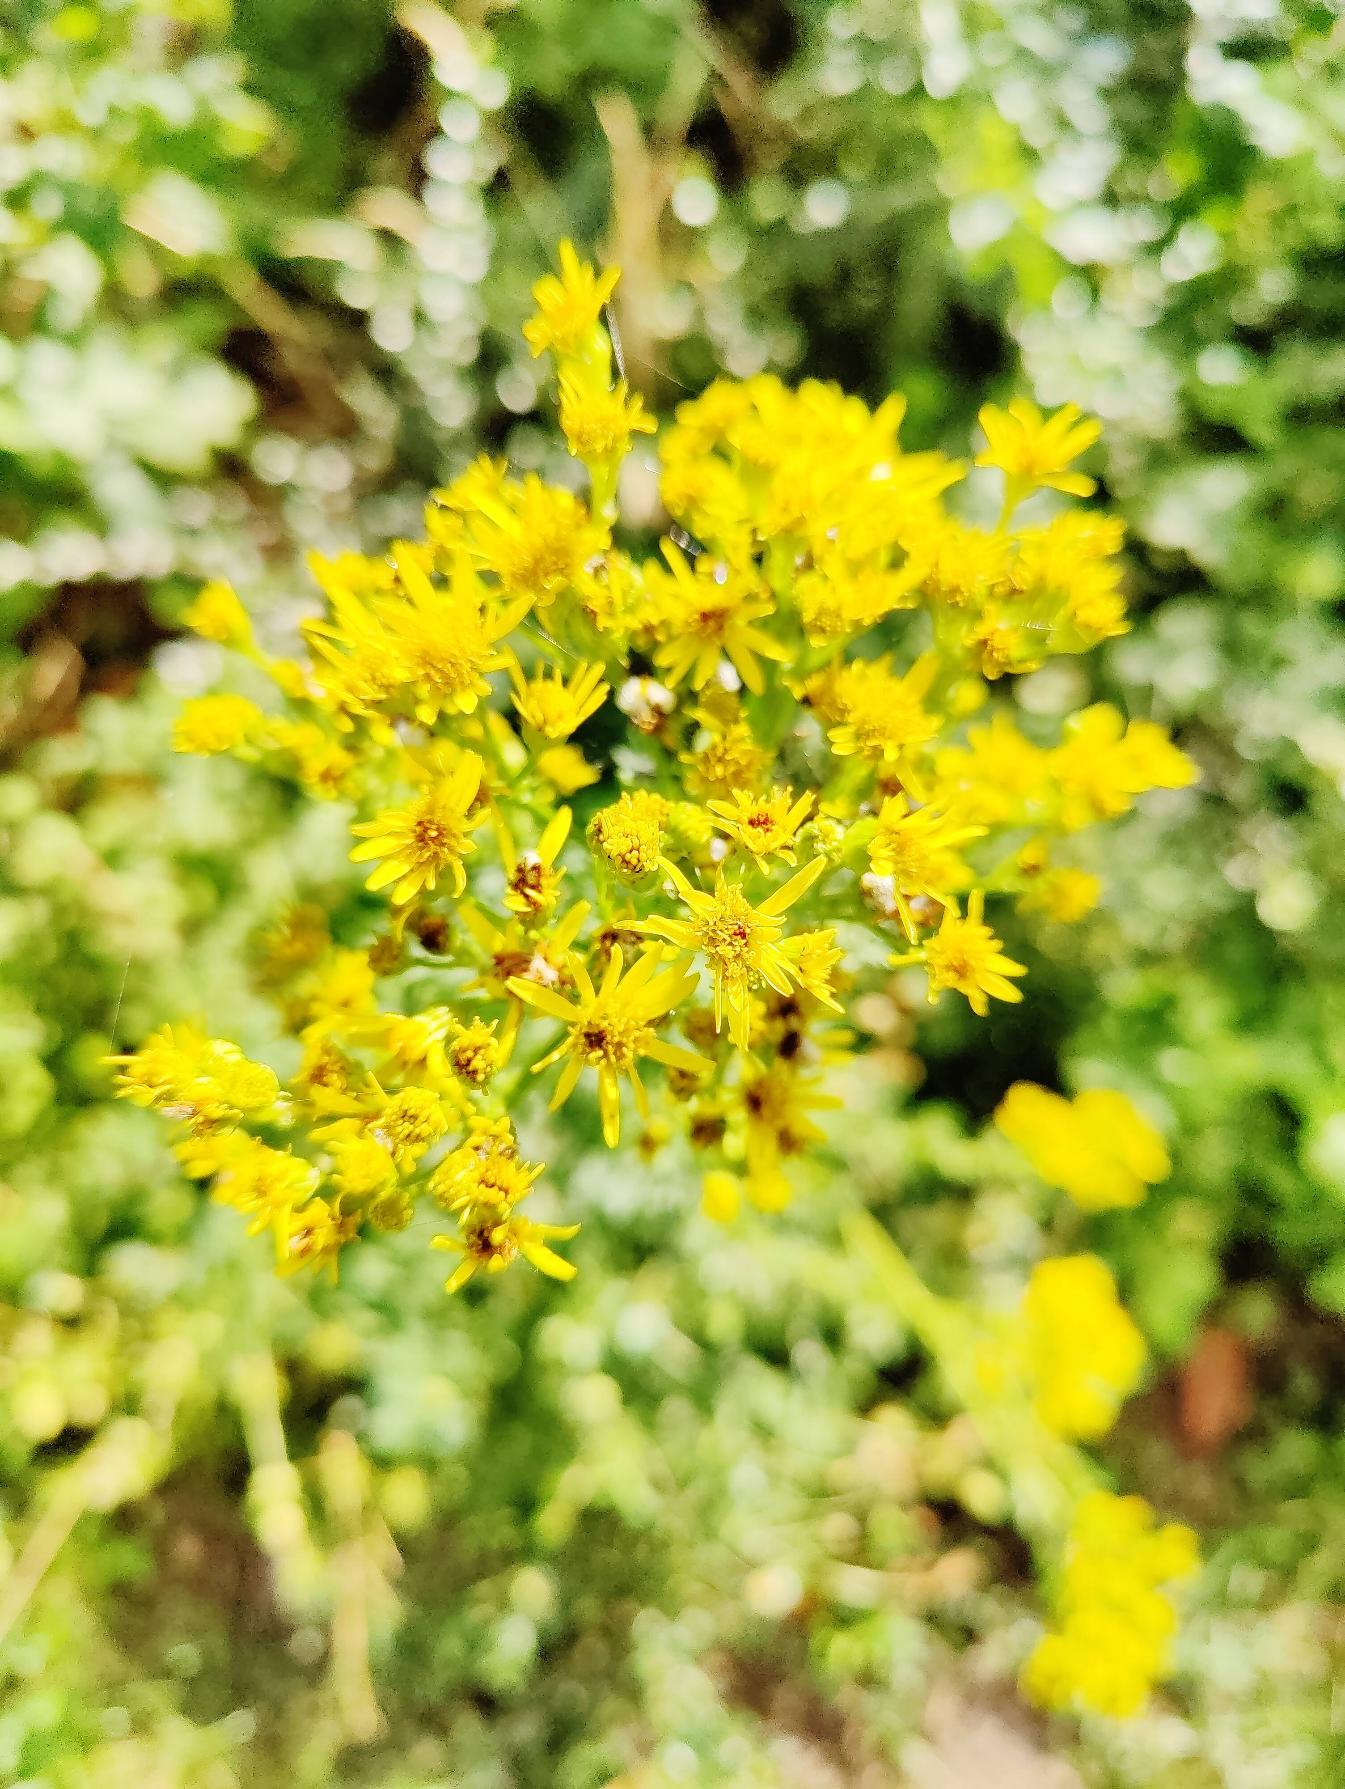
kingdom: Plantae
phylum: Tracheophyta
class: Magnoliopsida
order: Asterales
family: Asteraceae
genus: Jacobaea
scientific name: Jacobaea vulgaris
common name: Eng-brandbæger
